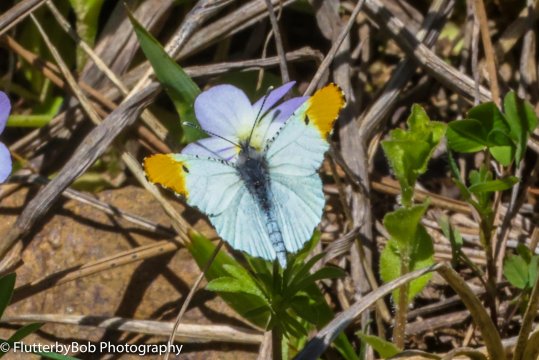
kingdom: Animalia
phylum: Arthropoda
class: Insecta
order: Lepidoptera
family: Pieridae
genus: Anthocharis
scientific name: Anthocharis midea
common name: Falcate Orangetip
